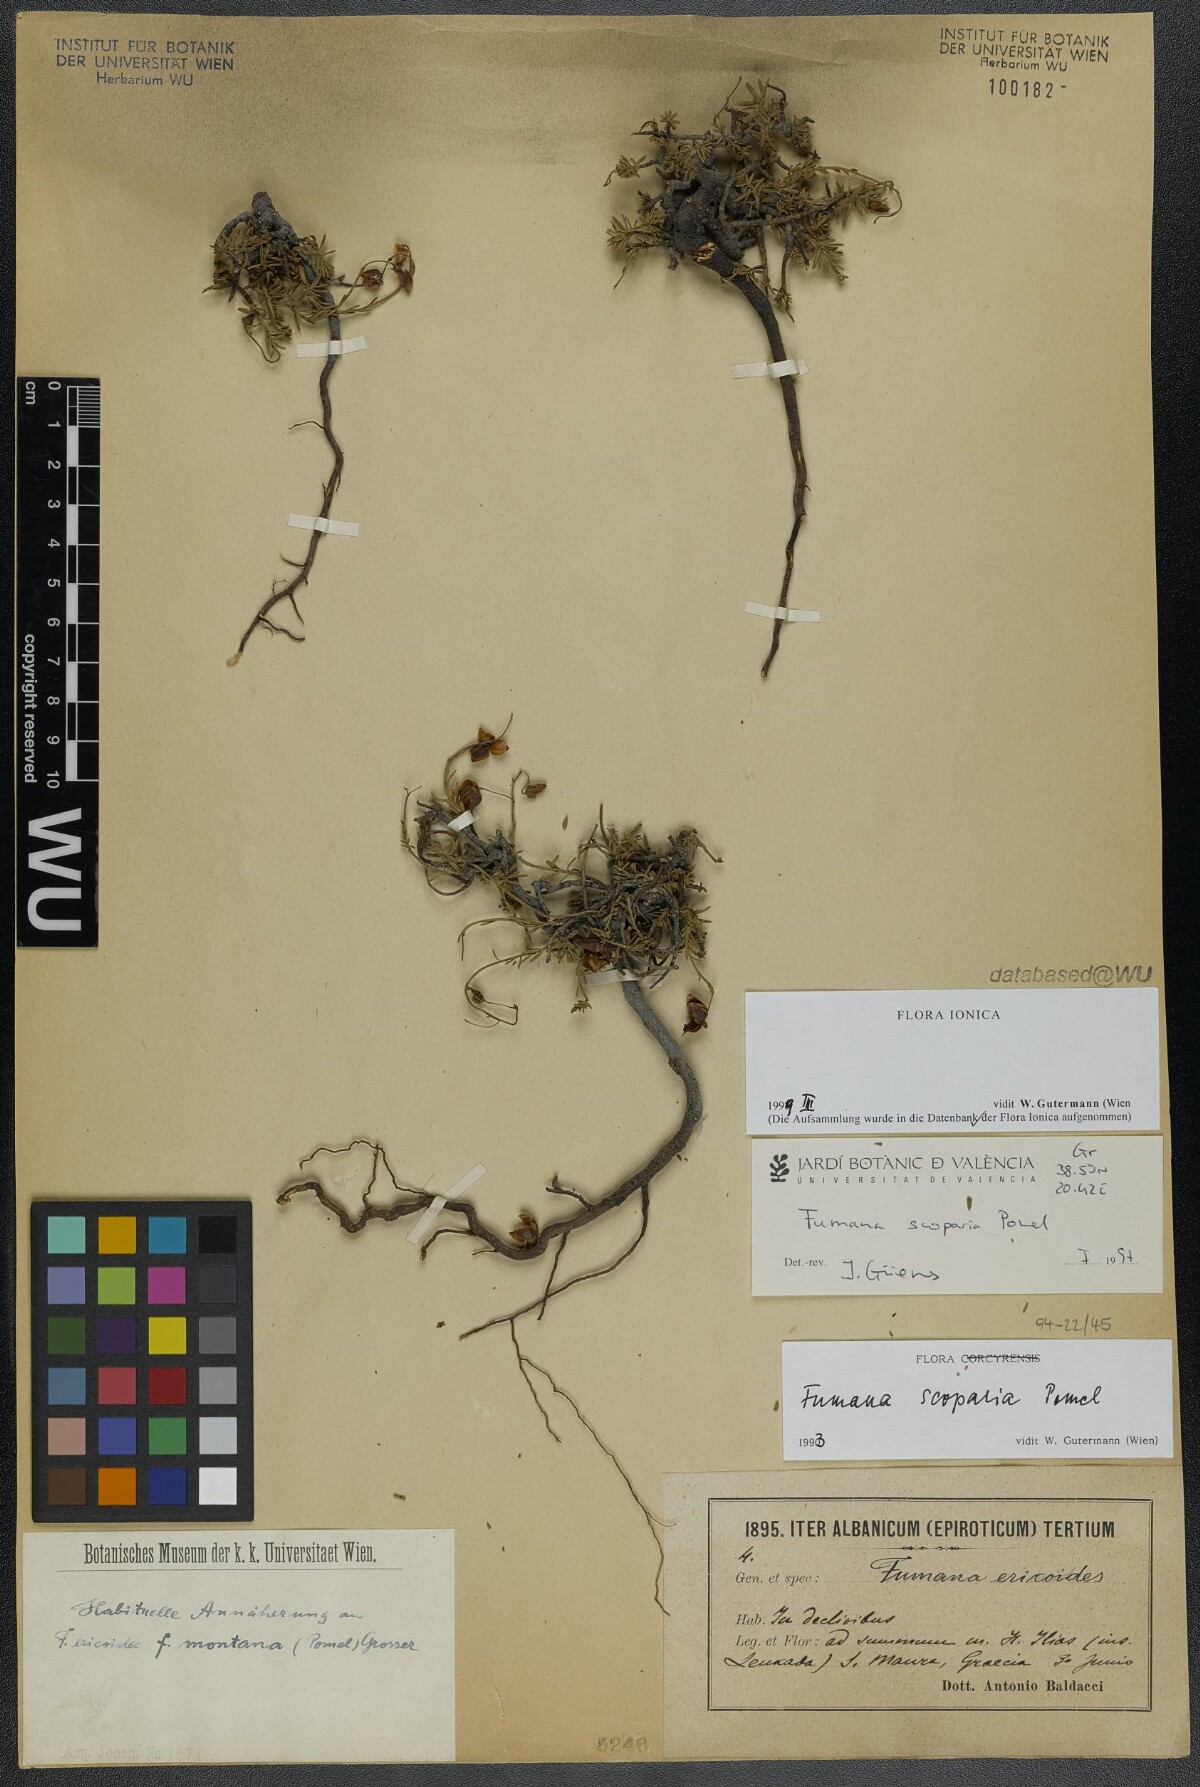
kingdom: Plantae
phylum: Tracheophyta
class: Magnoliopsida
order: Malvales
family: Cistaceae
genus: Fumana
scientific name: Fumana scoparia
